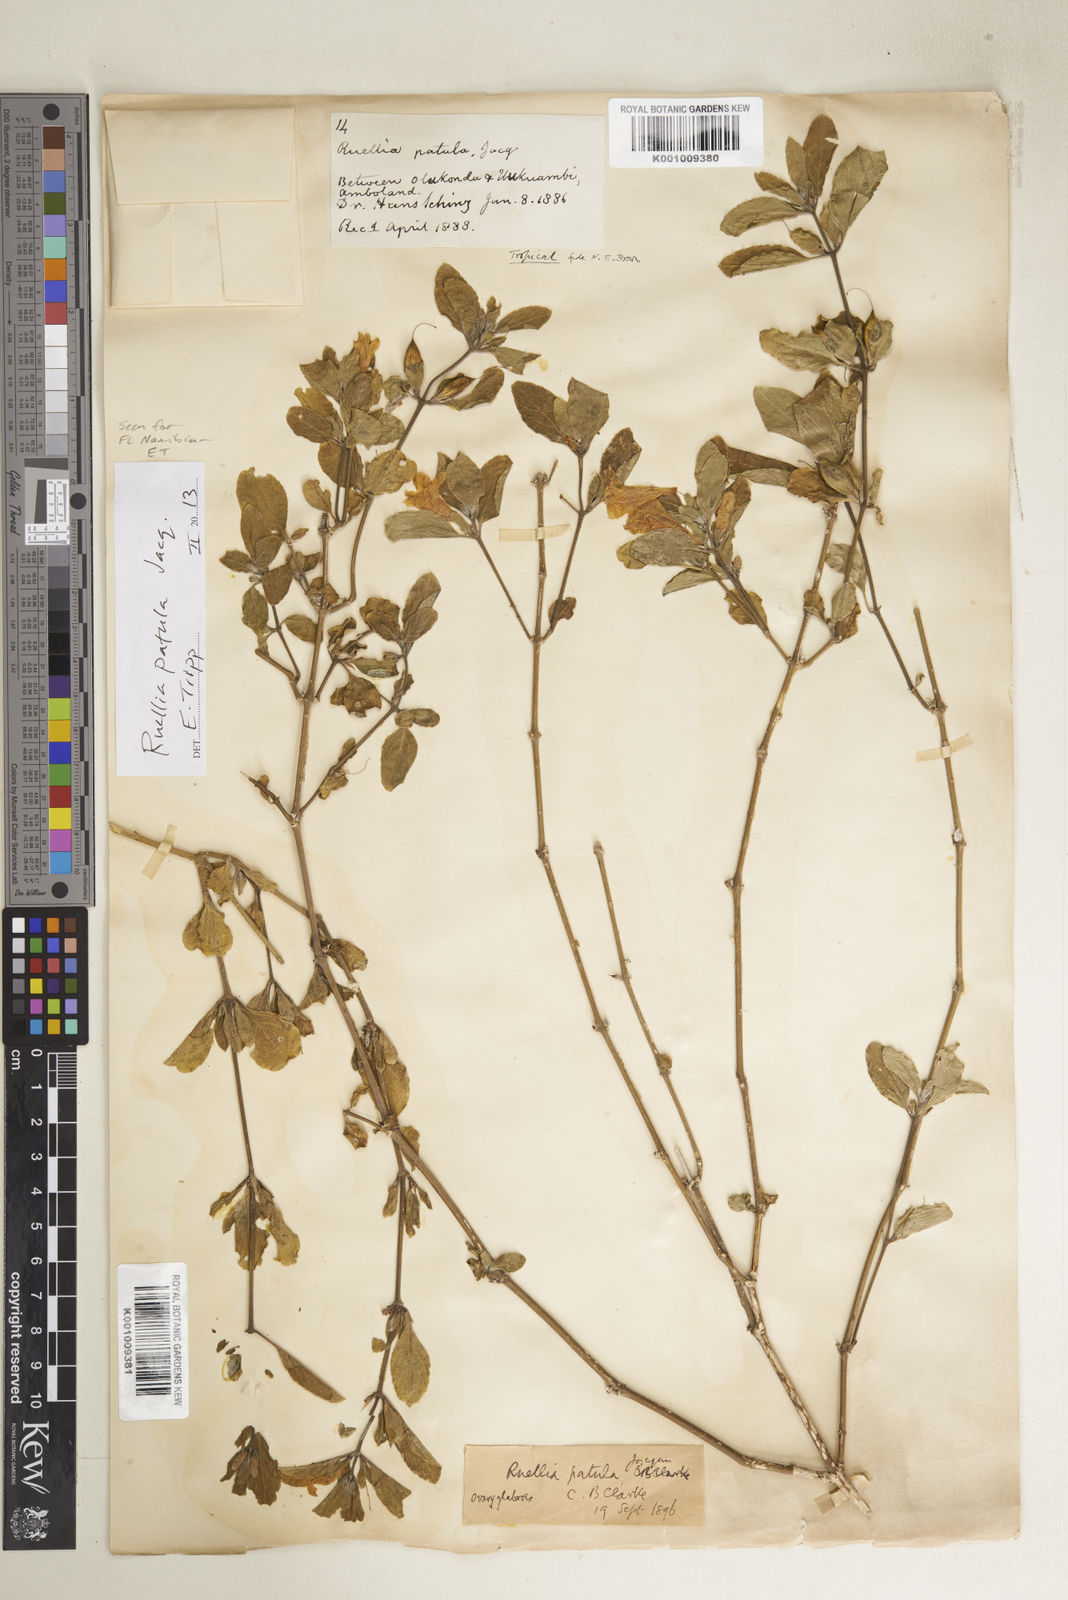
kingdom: Plantae
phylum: Tracheophyta
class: Magnoliopsida
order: Lamiales
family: Acanthaceae
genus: Ruellia
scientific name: Ruellia patula
